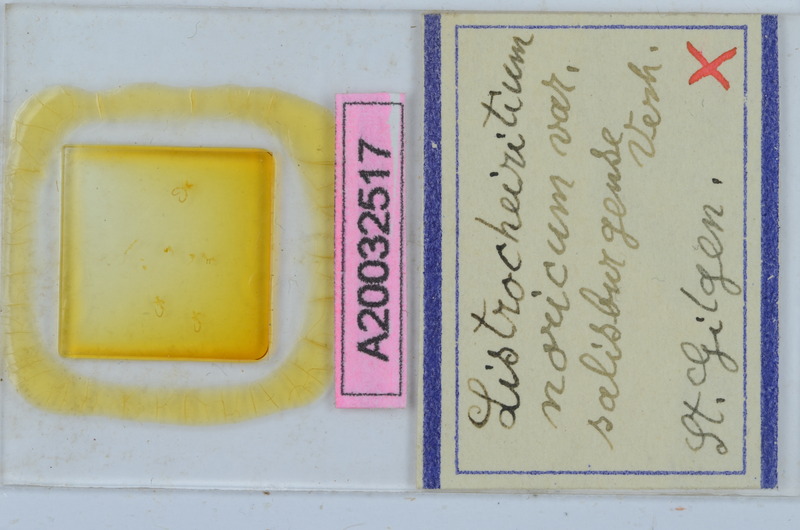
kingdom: Animalia
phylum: Arthropoda
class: Diplopoda
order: Chordeumatida
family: Craspedosomatidae
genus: Listrocheiritium
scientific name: Listrocheiritium noricum
